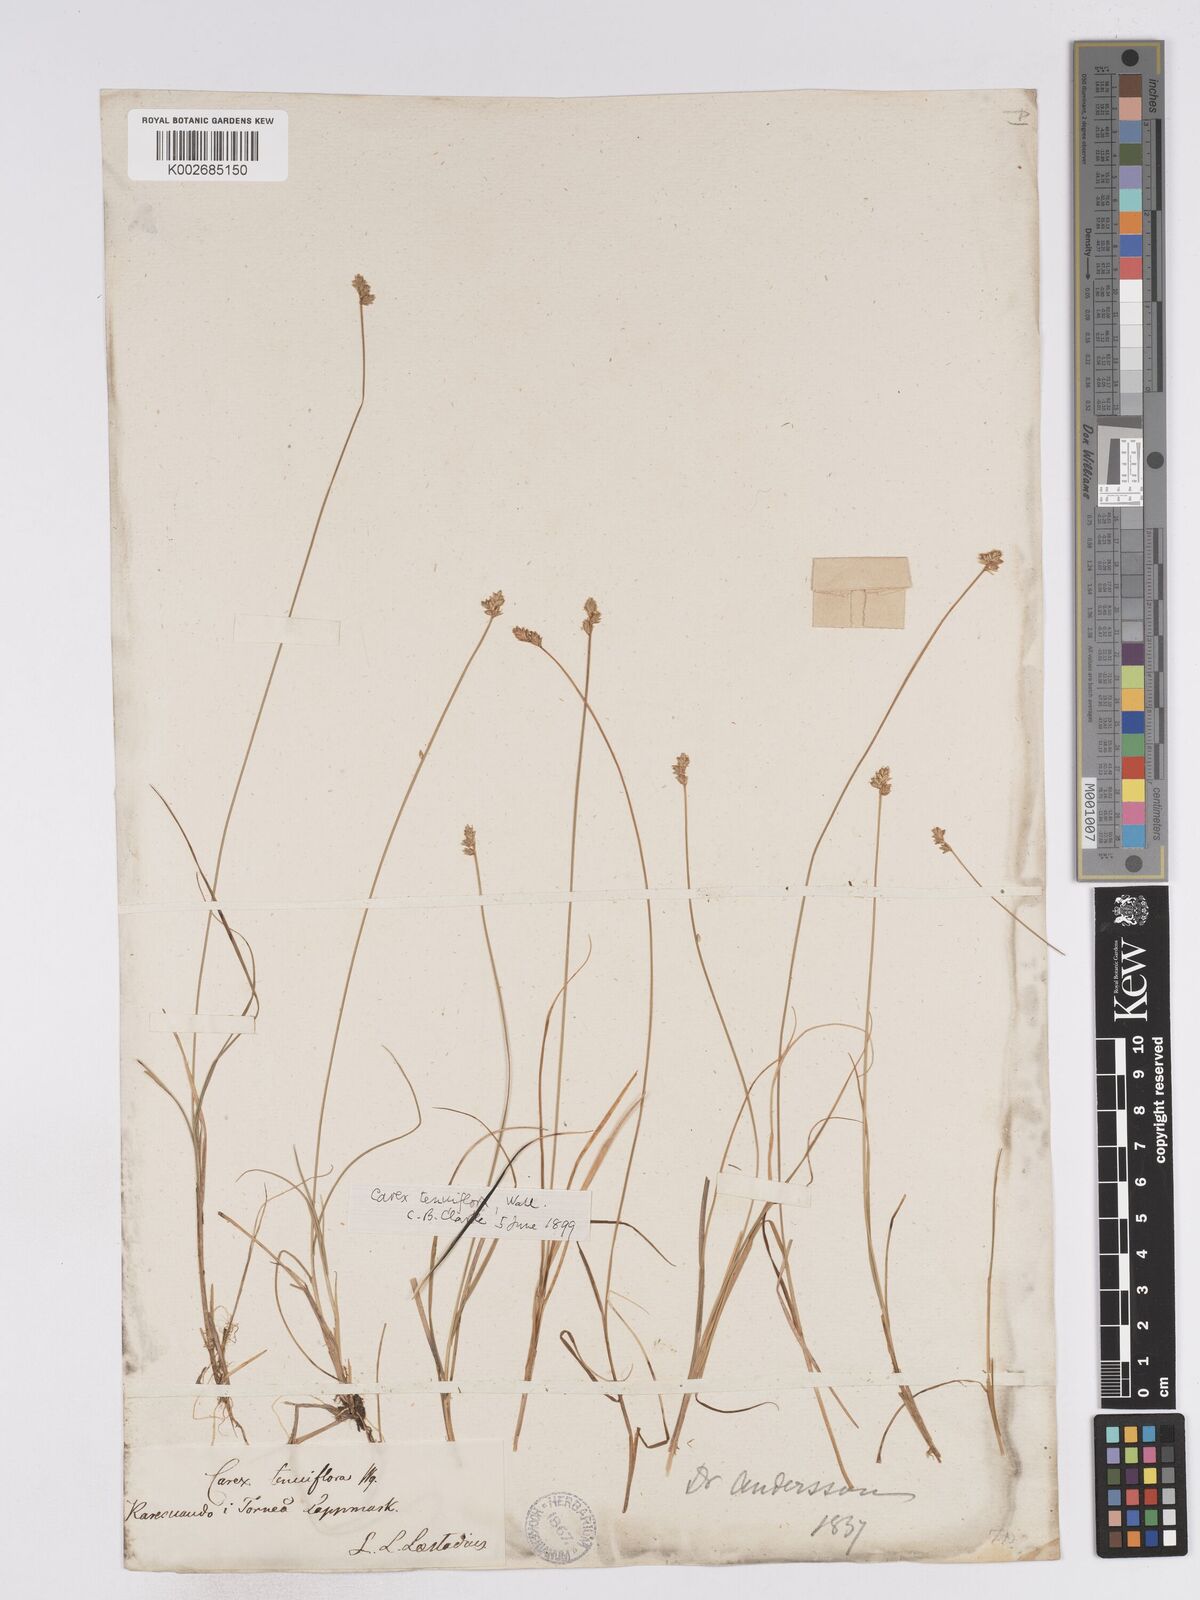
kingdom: Plantae
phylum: Tracheophyta
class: Liliopsida
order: Poales
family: Cyperaceae
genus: Carex
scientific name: Carex tenuiflora
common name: Sparse-flowered sedge
